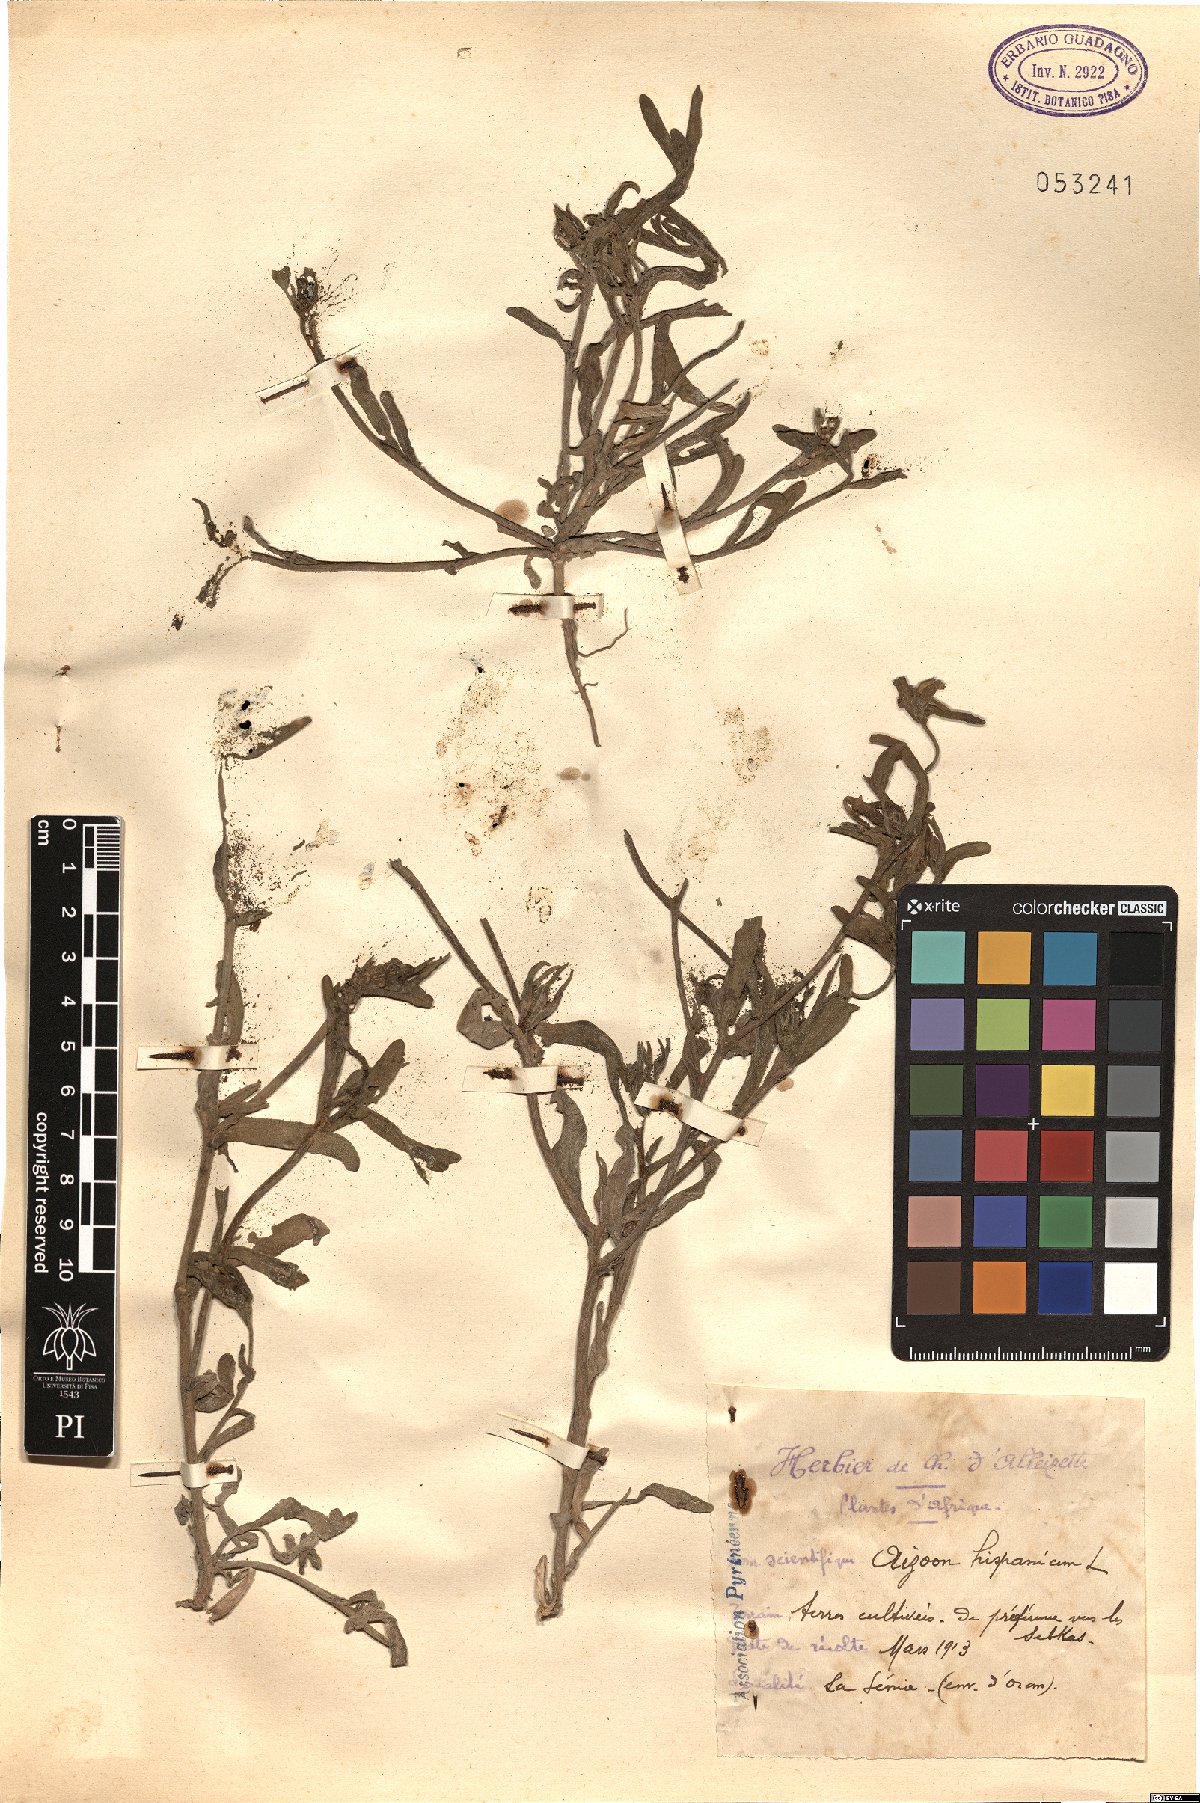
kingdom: Plantae
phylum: Tracheophyta
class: Magnoliopsida
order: Caryophyllales
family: Aizoaceae
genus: Aizoanthemopsis
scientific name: Aizoanthemopsis hispanica
